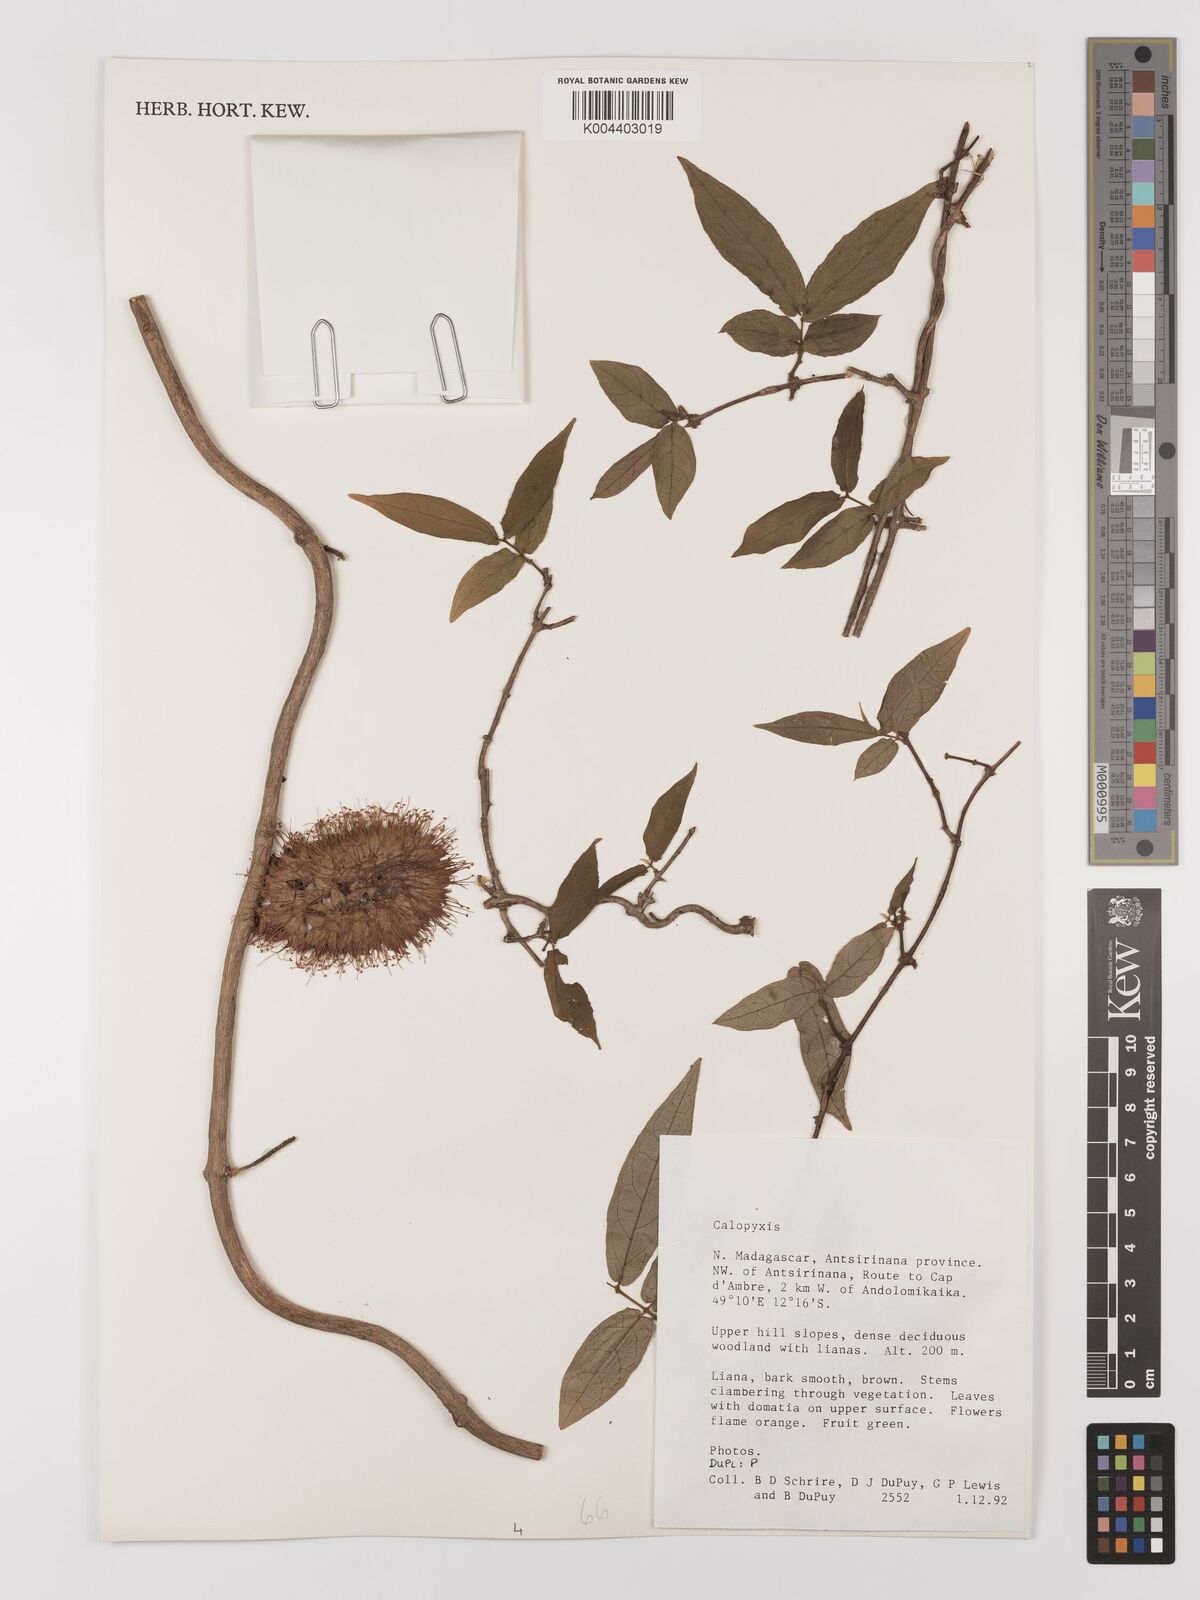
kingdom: Plantae
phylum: Tracheophyta
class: Magnoliopsida
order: Myrtales
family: Combretaceae
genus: Combretum
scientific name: Combretum
